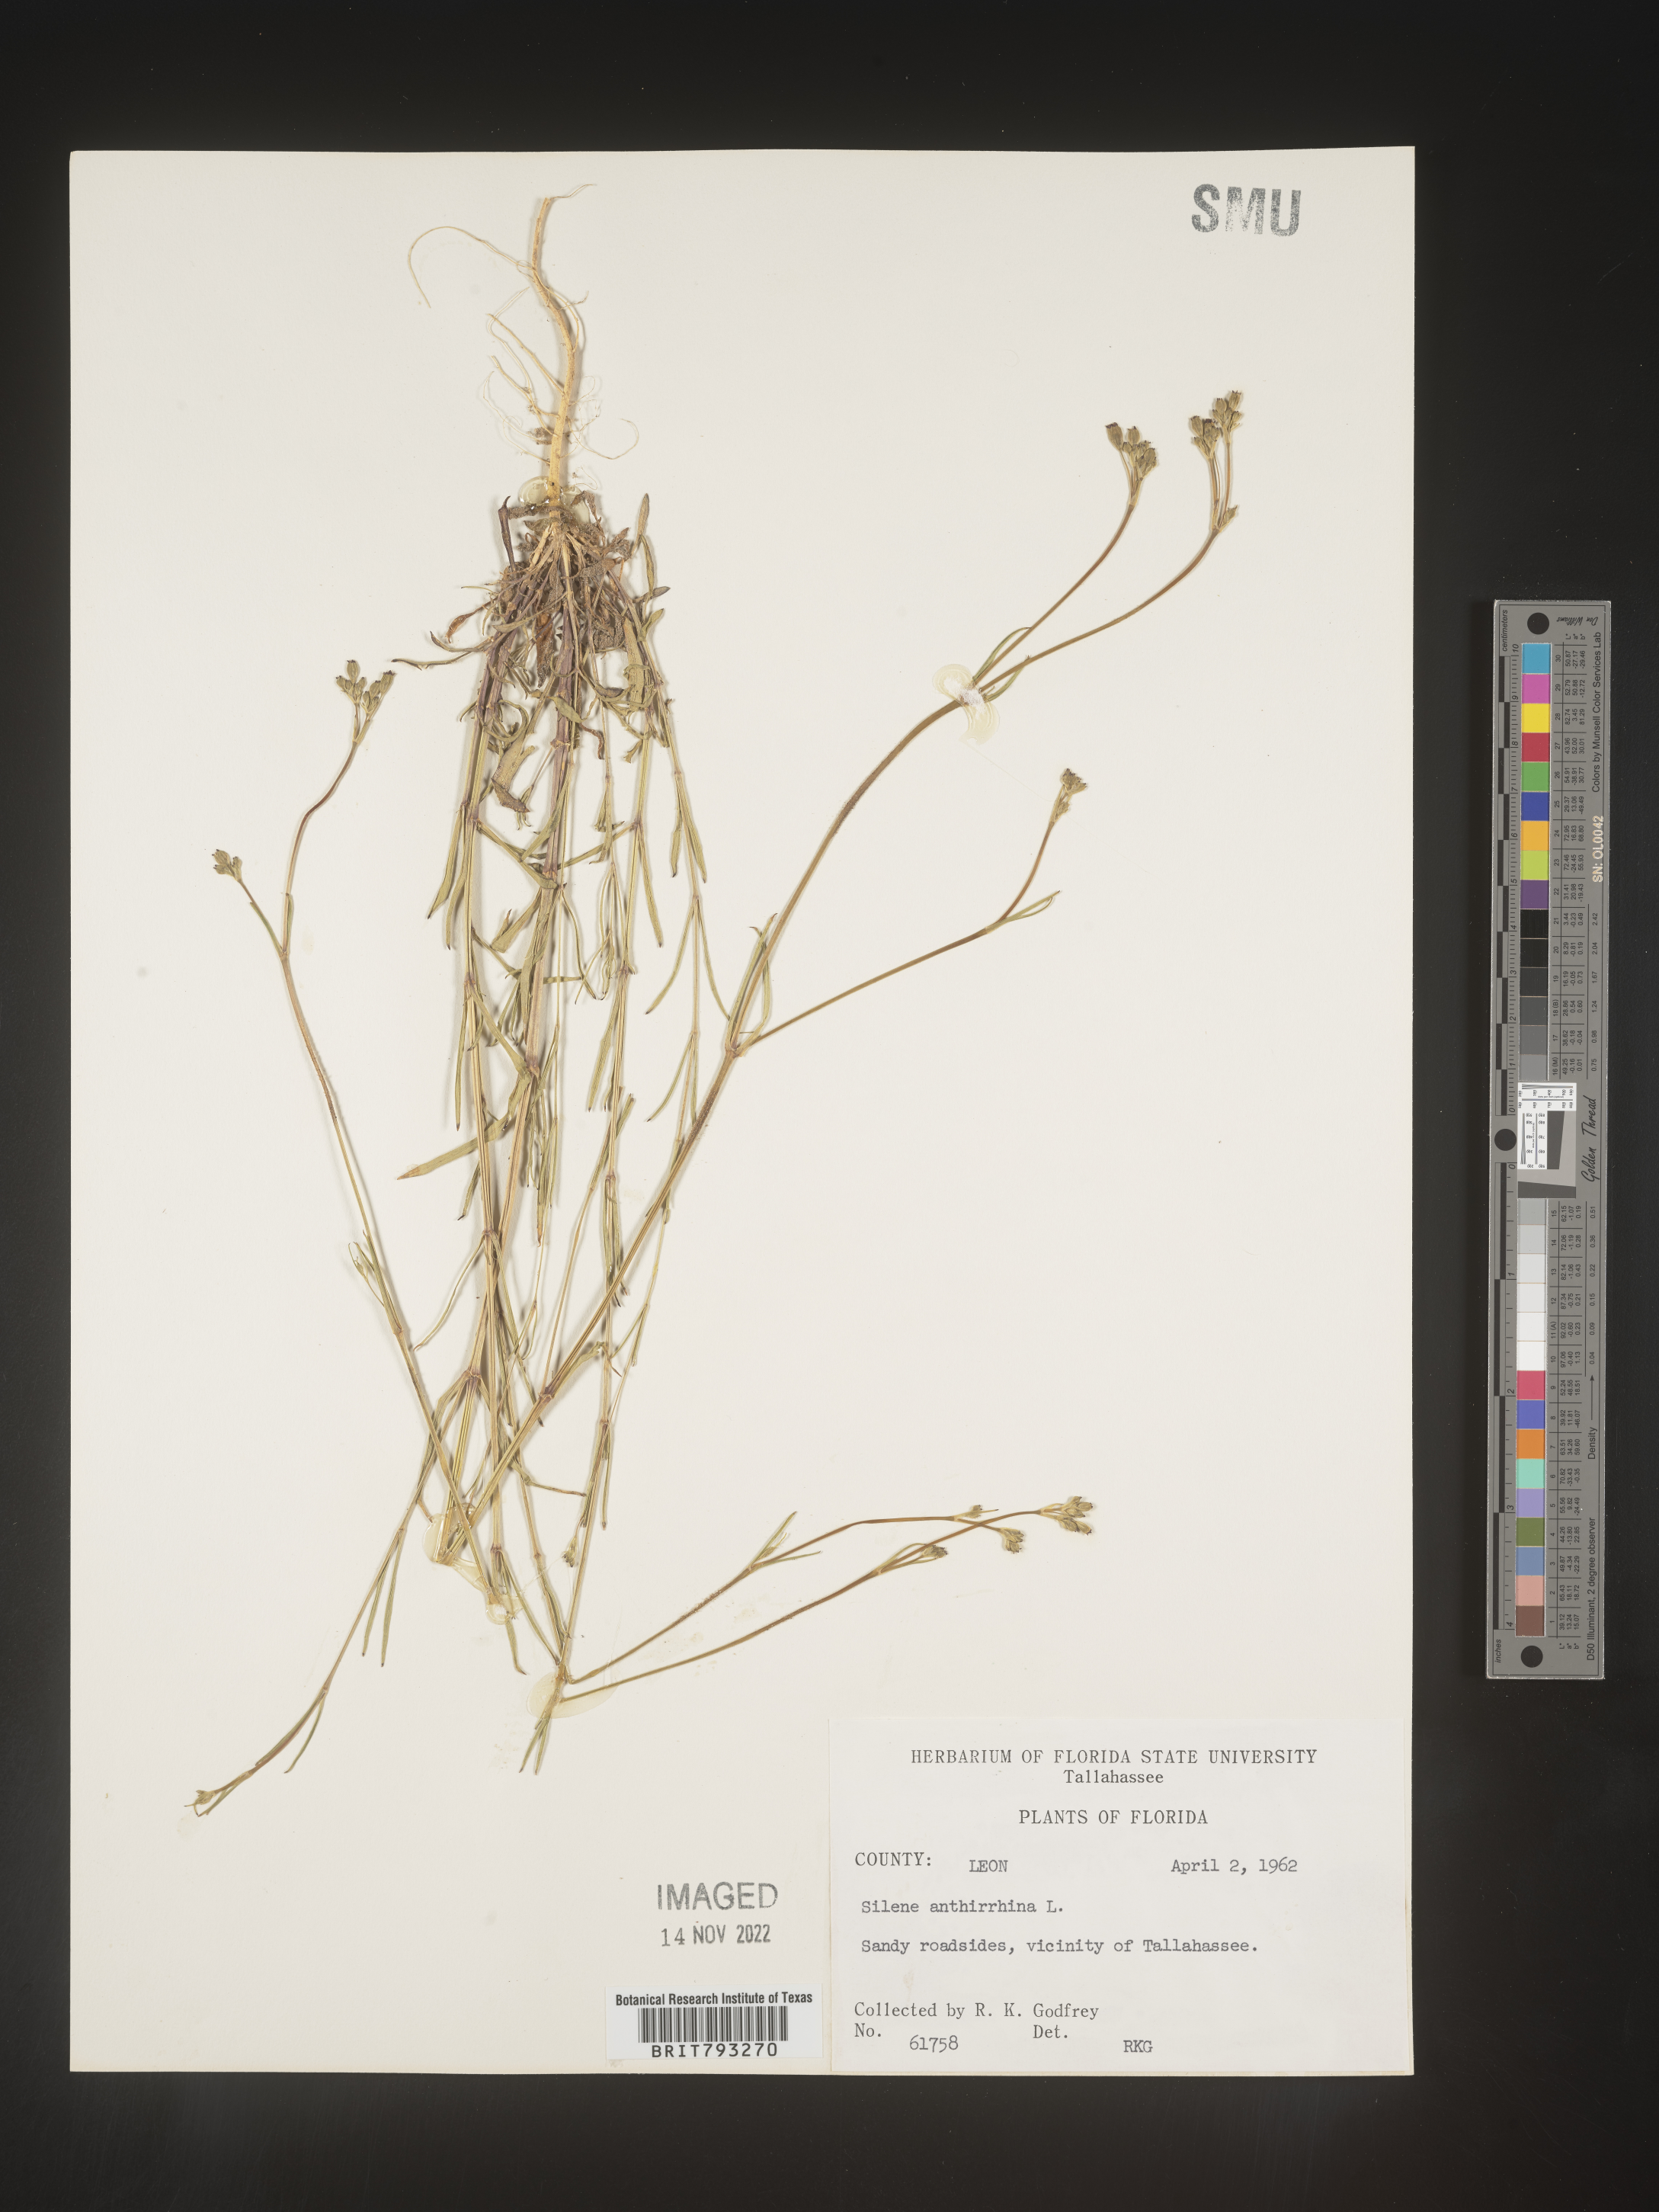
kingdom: Plantae
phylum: Tracheophyta
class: Magnoliopsida
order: Caryophyllales
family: Caryophyllaceae
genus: Silene
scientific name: Silene antirrhina
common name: Sleepy catchfly
